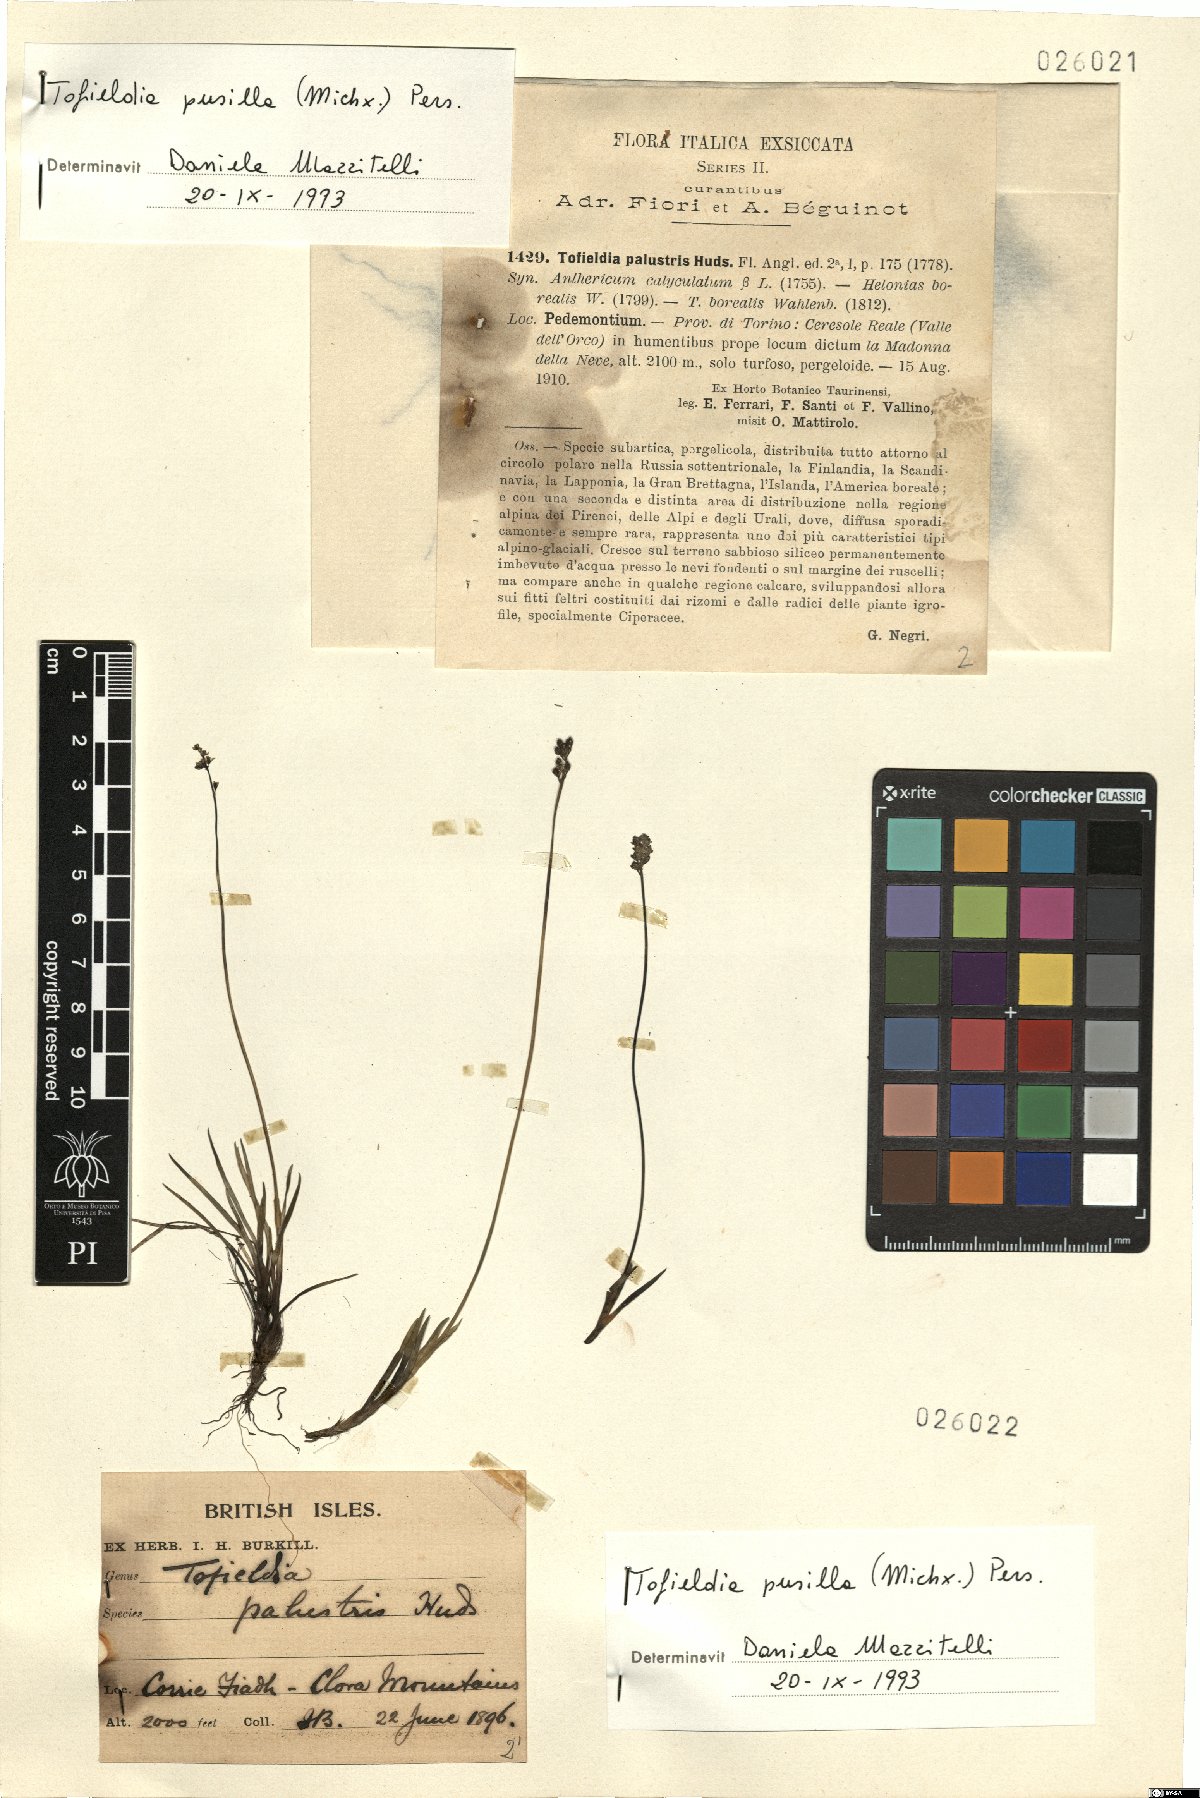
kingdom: Plantae
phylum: Tracheophyta
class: Liliopsida
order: Alismatales
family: Tofieldiaceae
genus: Tofieldia
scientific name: Tofieldia pusilla
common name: Scottish false asphodel
